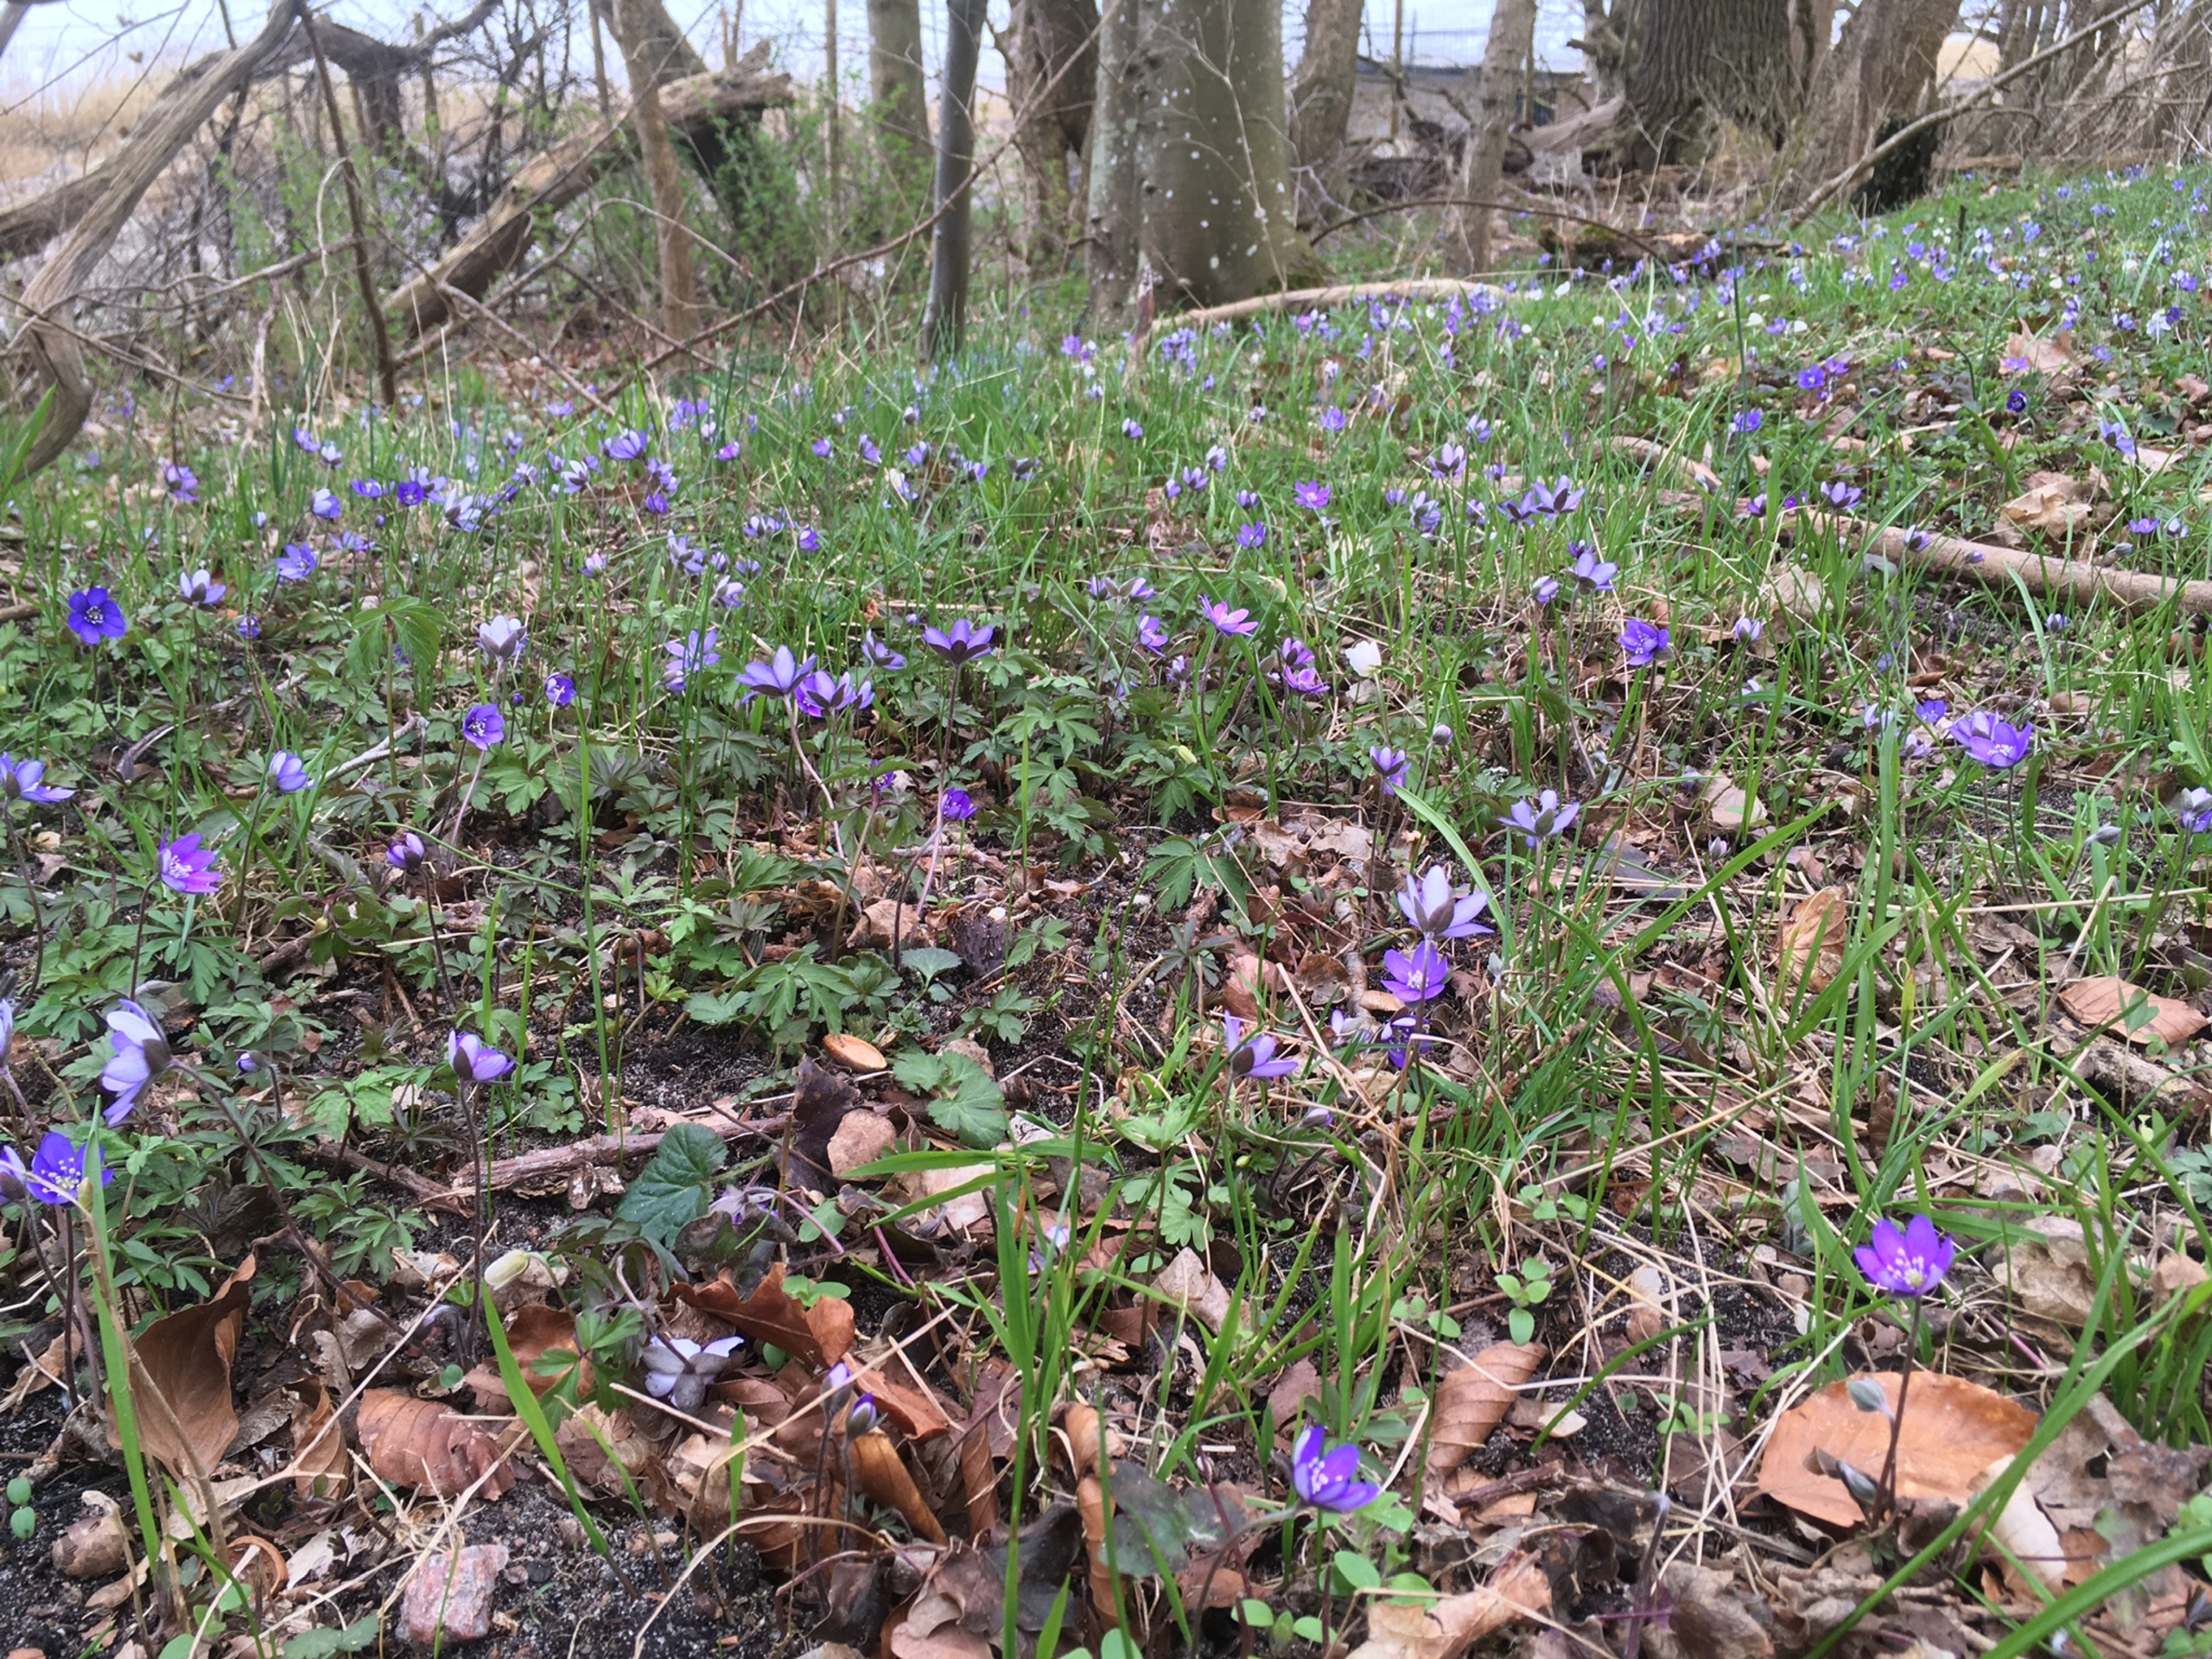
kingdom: Plantae
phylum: Tracheophyta
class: Magnoliopsida
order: Ranunculales
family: Ranunculaceae
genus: Hepatica
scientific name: Hepatica nobilis
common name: Blå anemone
